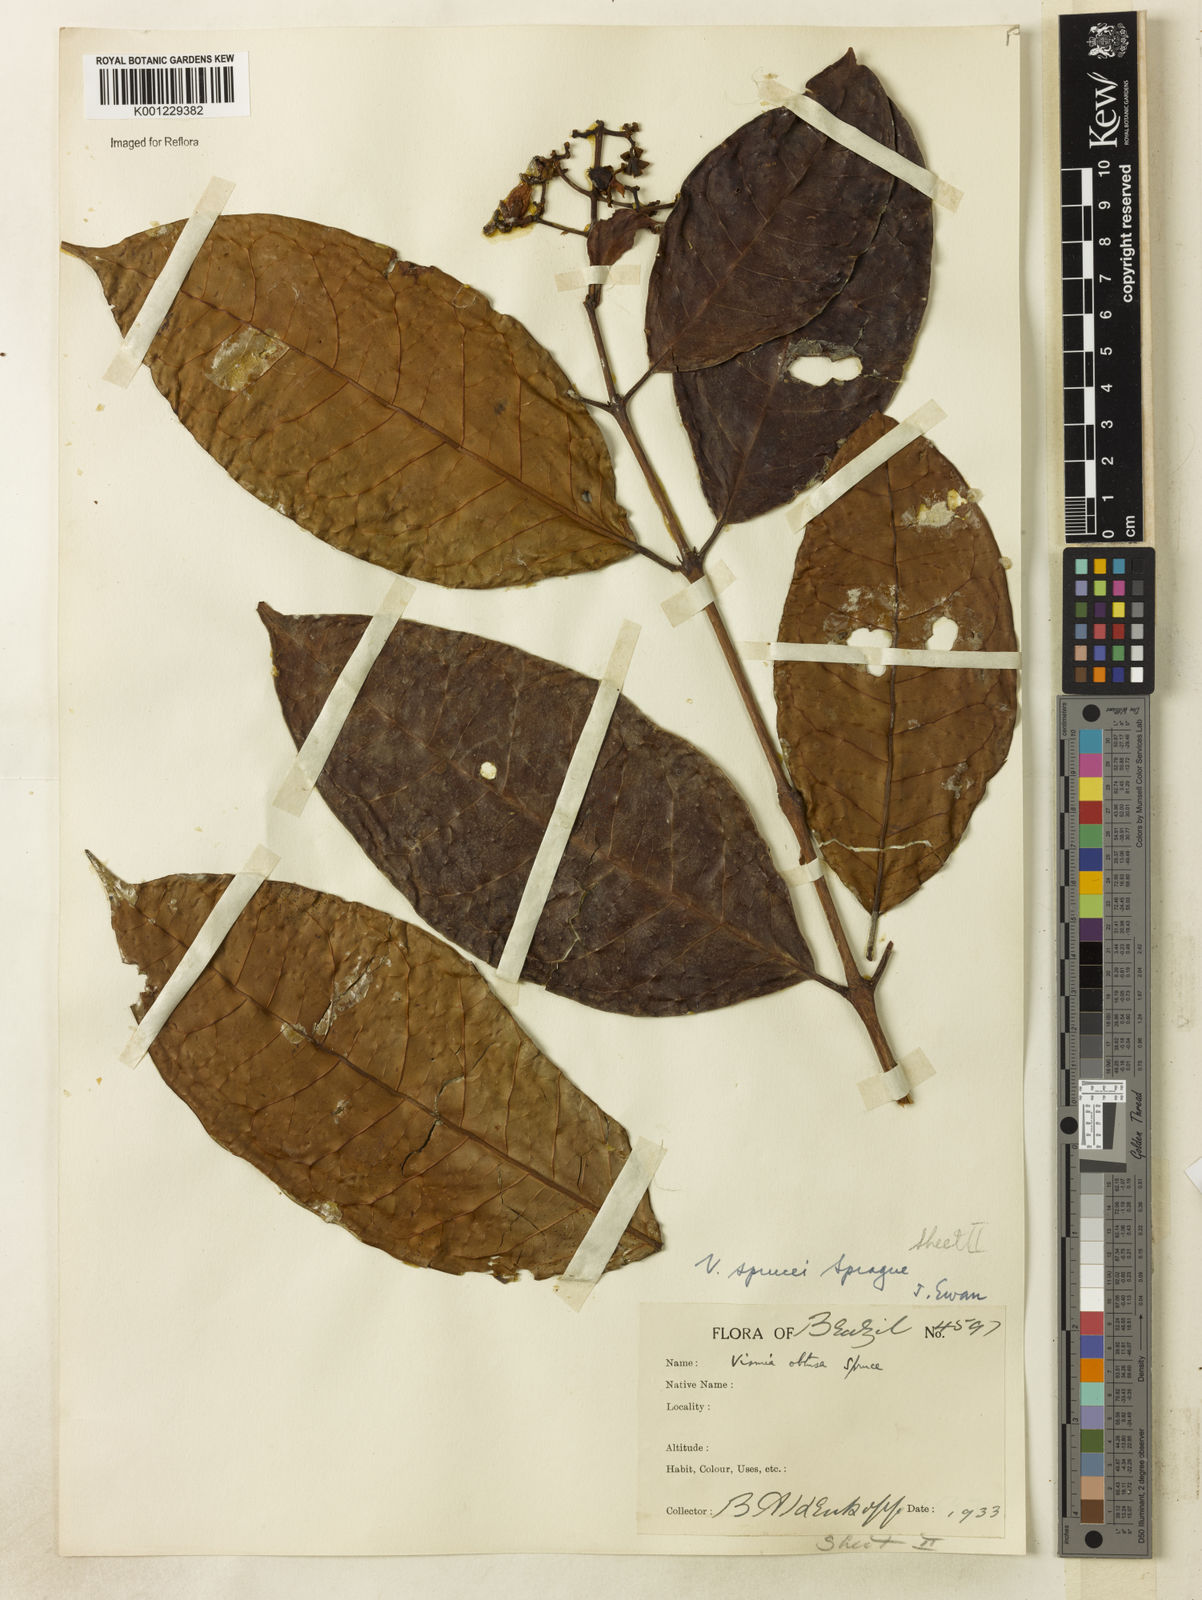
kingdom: Plantae
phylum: Tracheophyta
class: Magnoliopsida
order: Malpighiales
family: Hypericaceae
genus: Vismia
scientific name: Vismia sprucei
